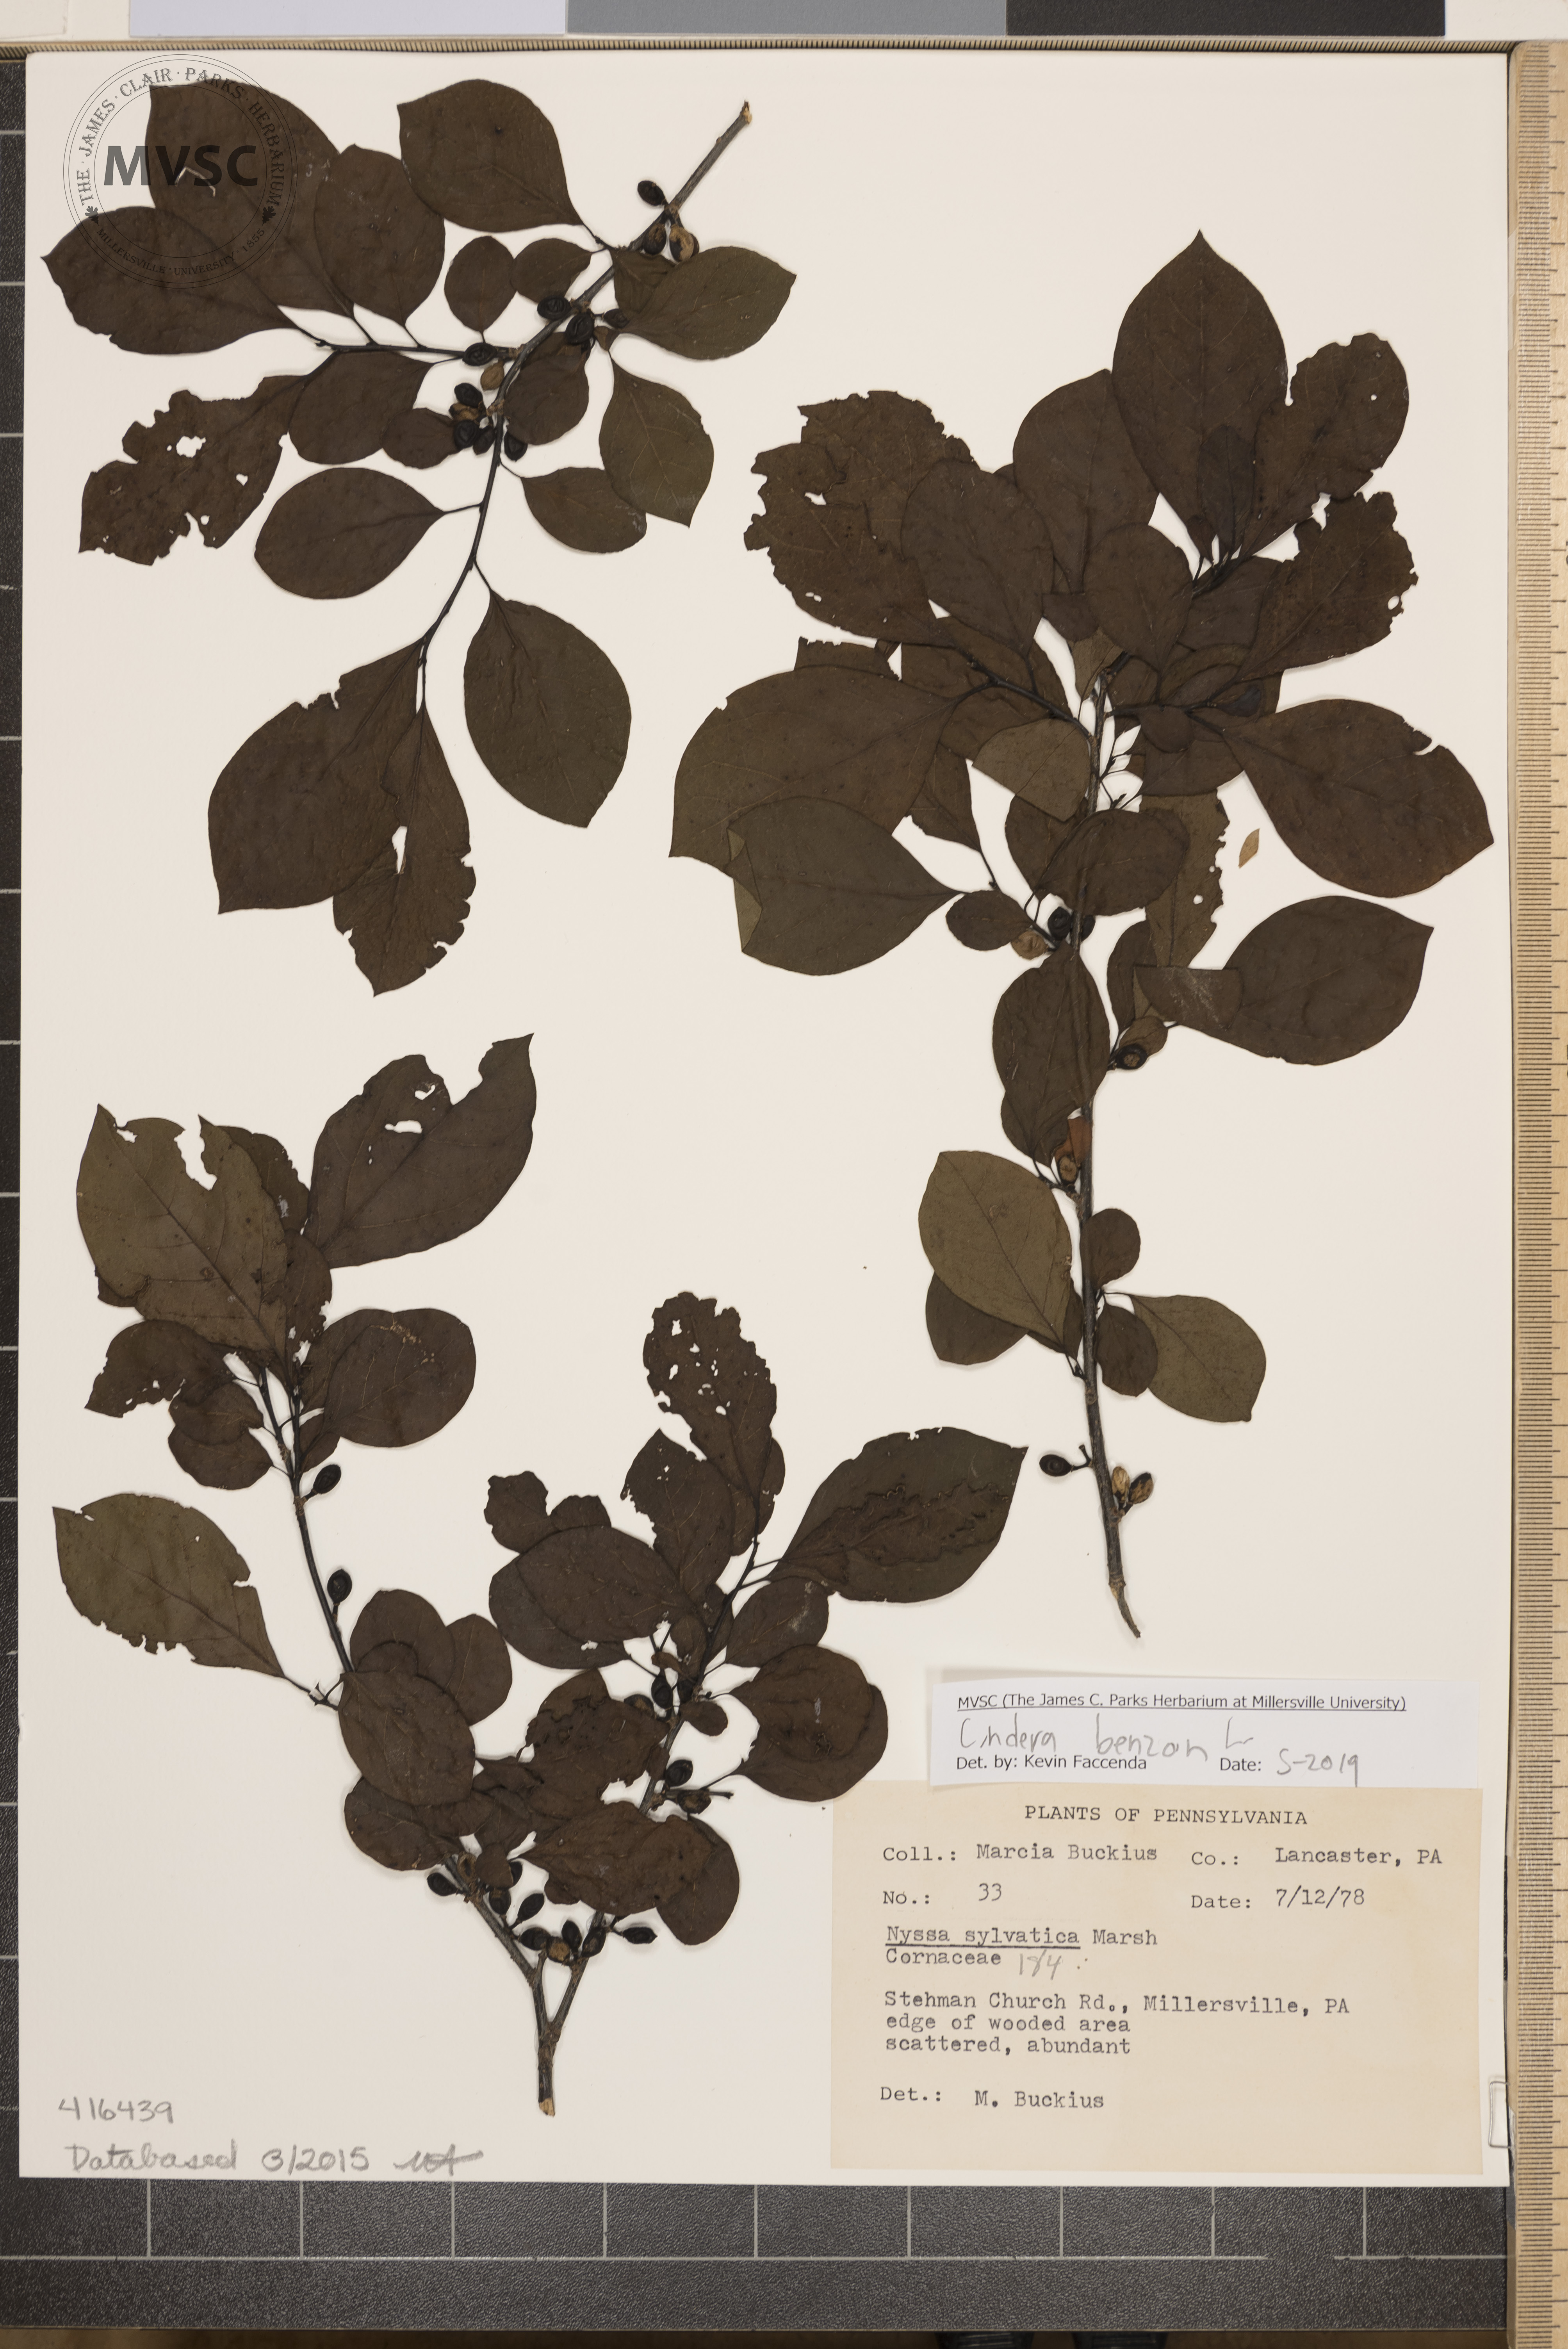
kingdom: Plantae
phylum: Tracheophyta
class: Magnoliopsida
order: Laurales
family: Lauraceae
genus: Lindera
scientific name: Lindera benzoin
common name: Spicebush
